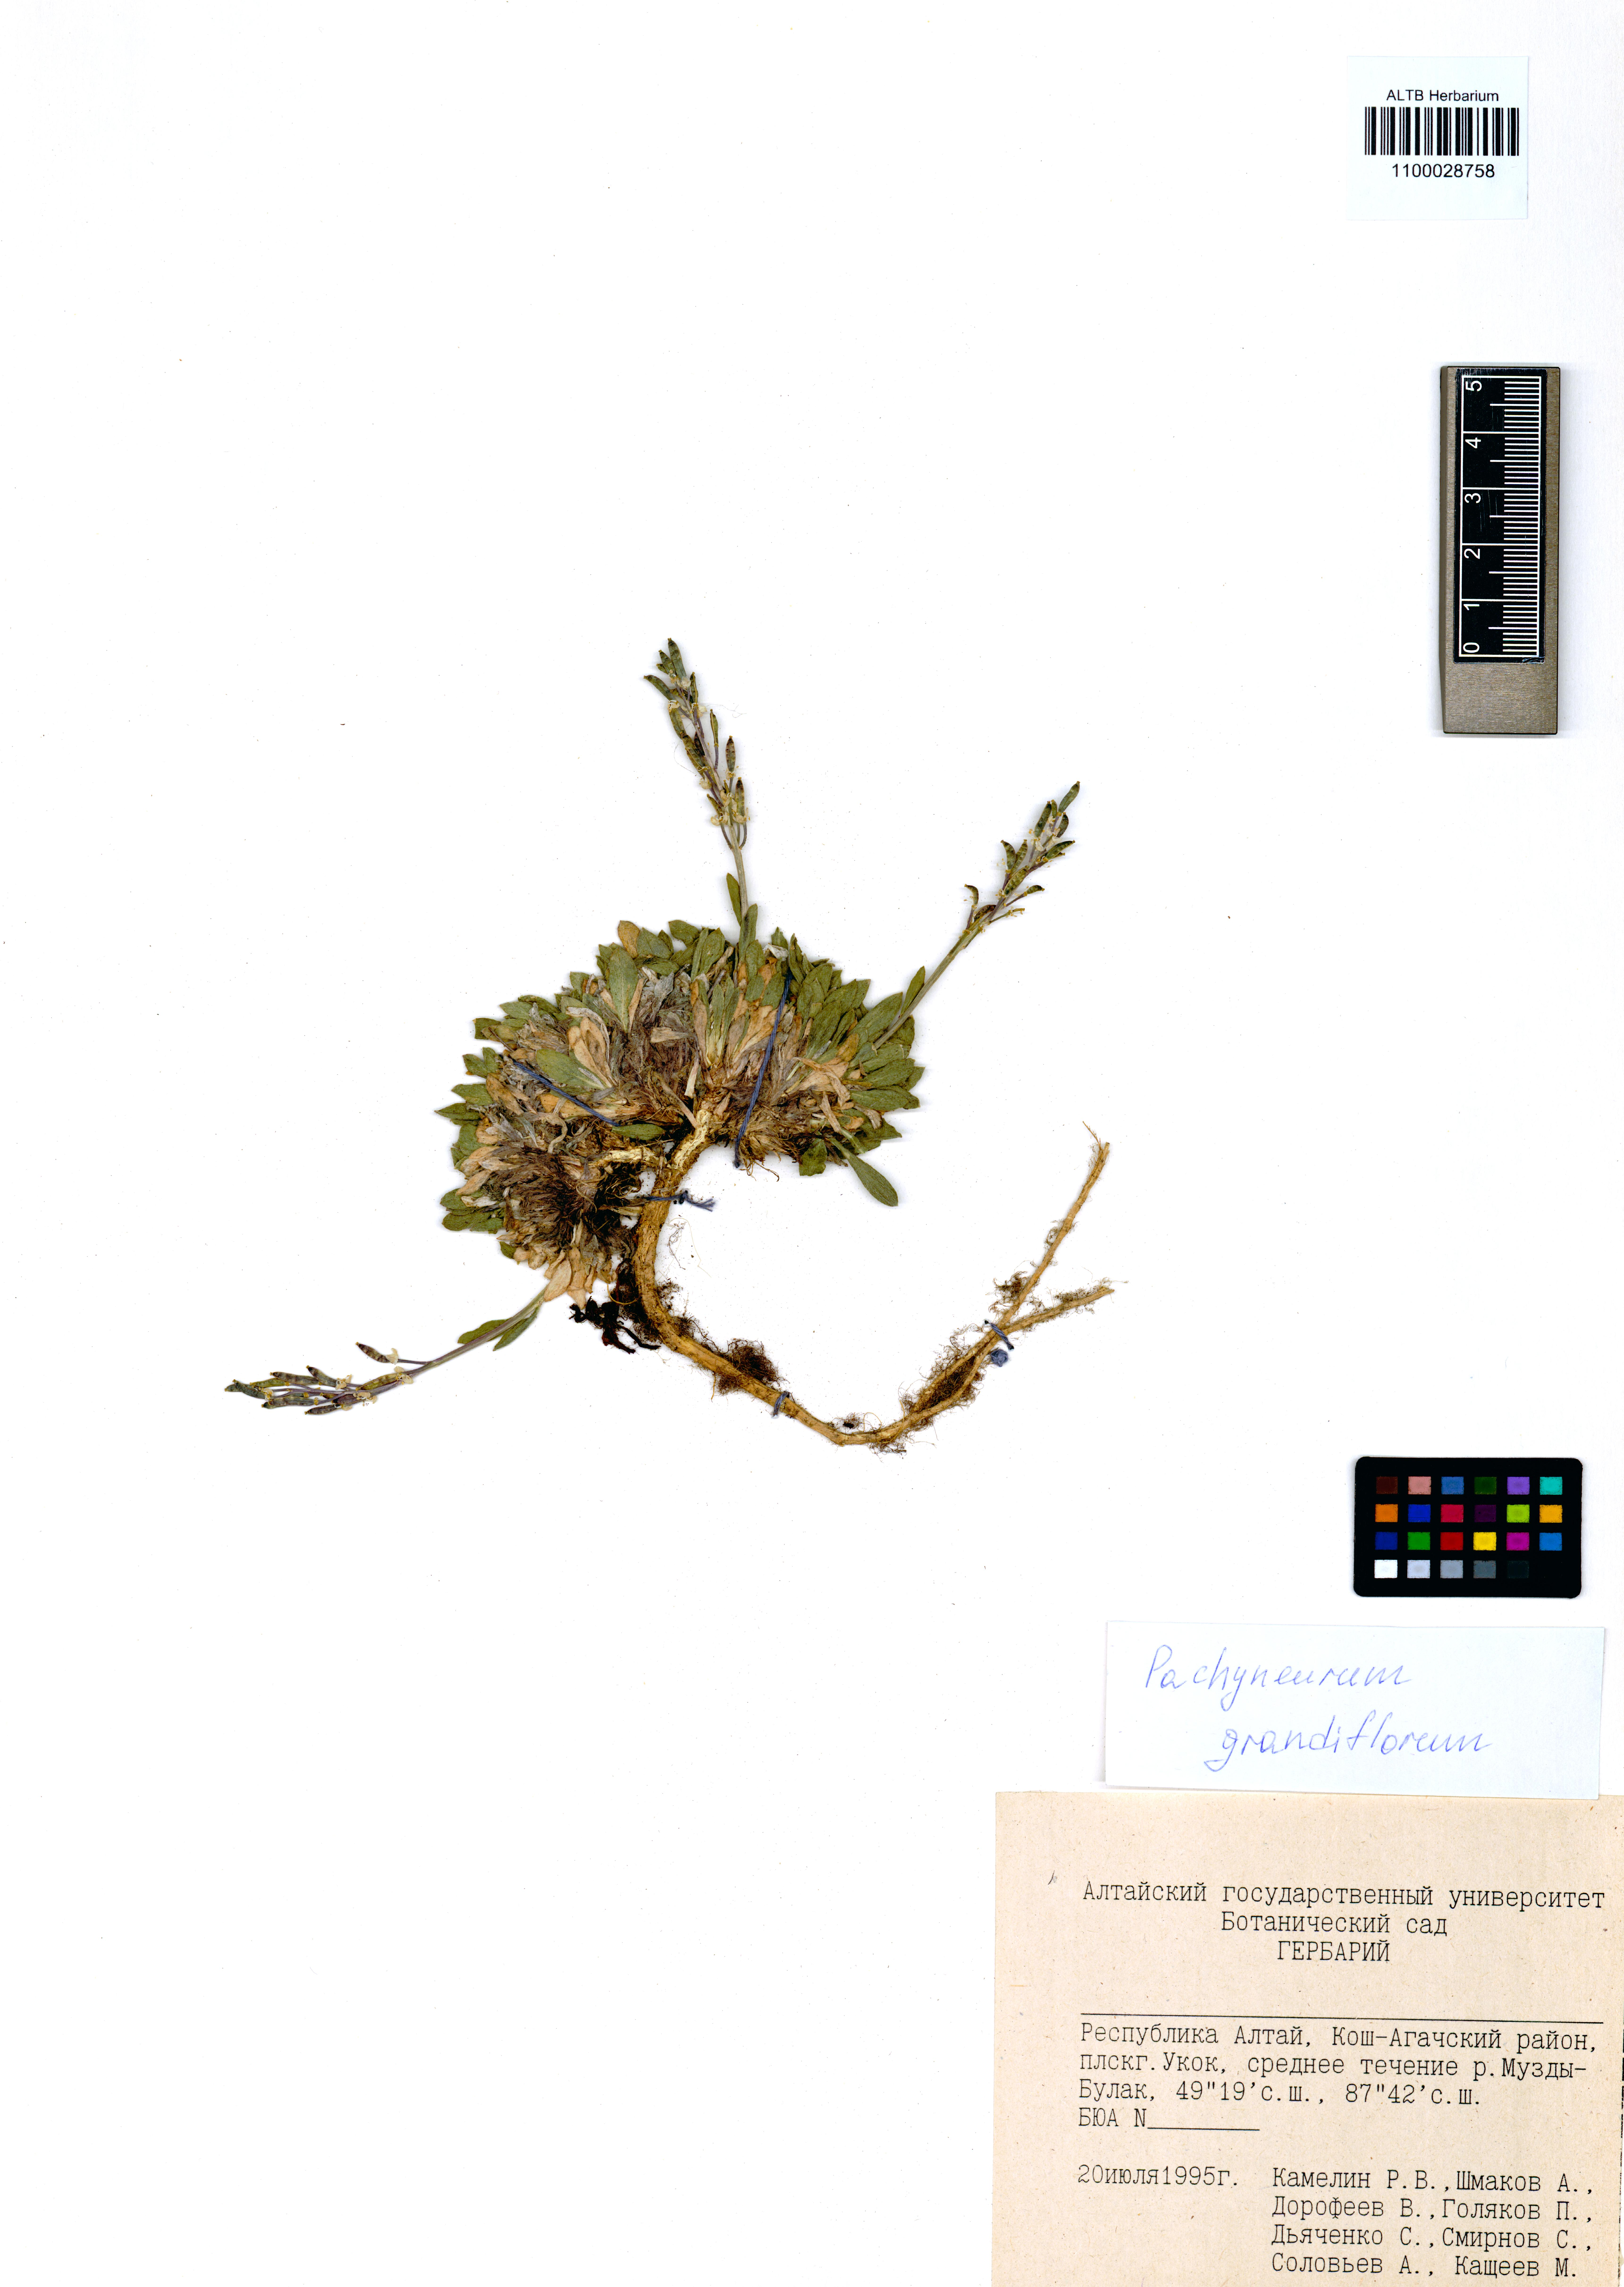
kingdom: Plantae
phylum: Tracheophyta
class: Magnoliopsida
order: Brassicales
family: Brassicaceae
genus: Pachyneurum
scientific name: Pachyneurum grandiflorum
